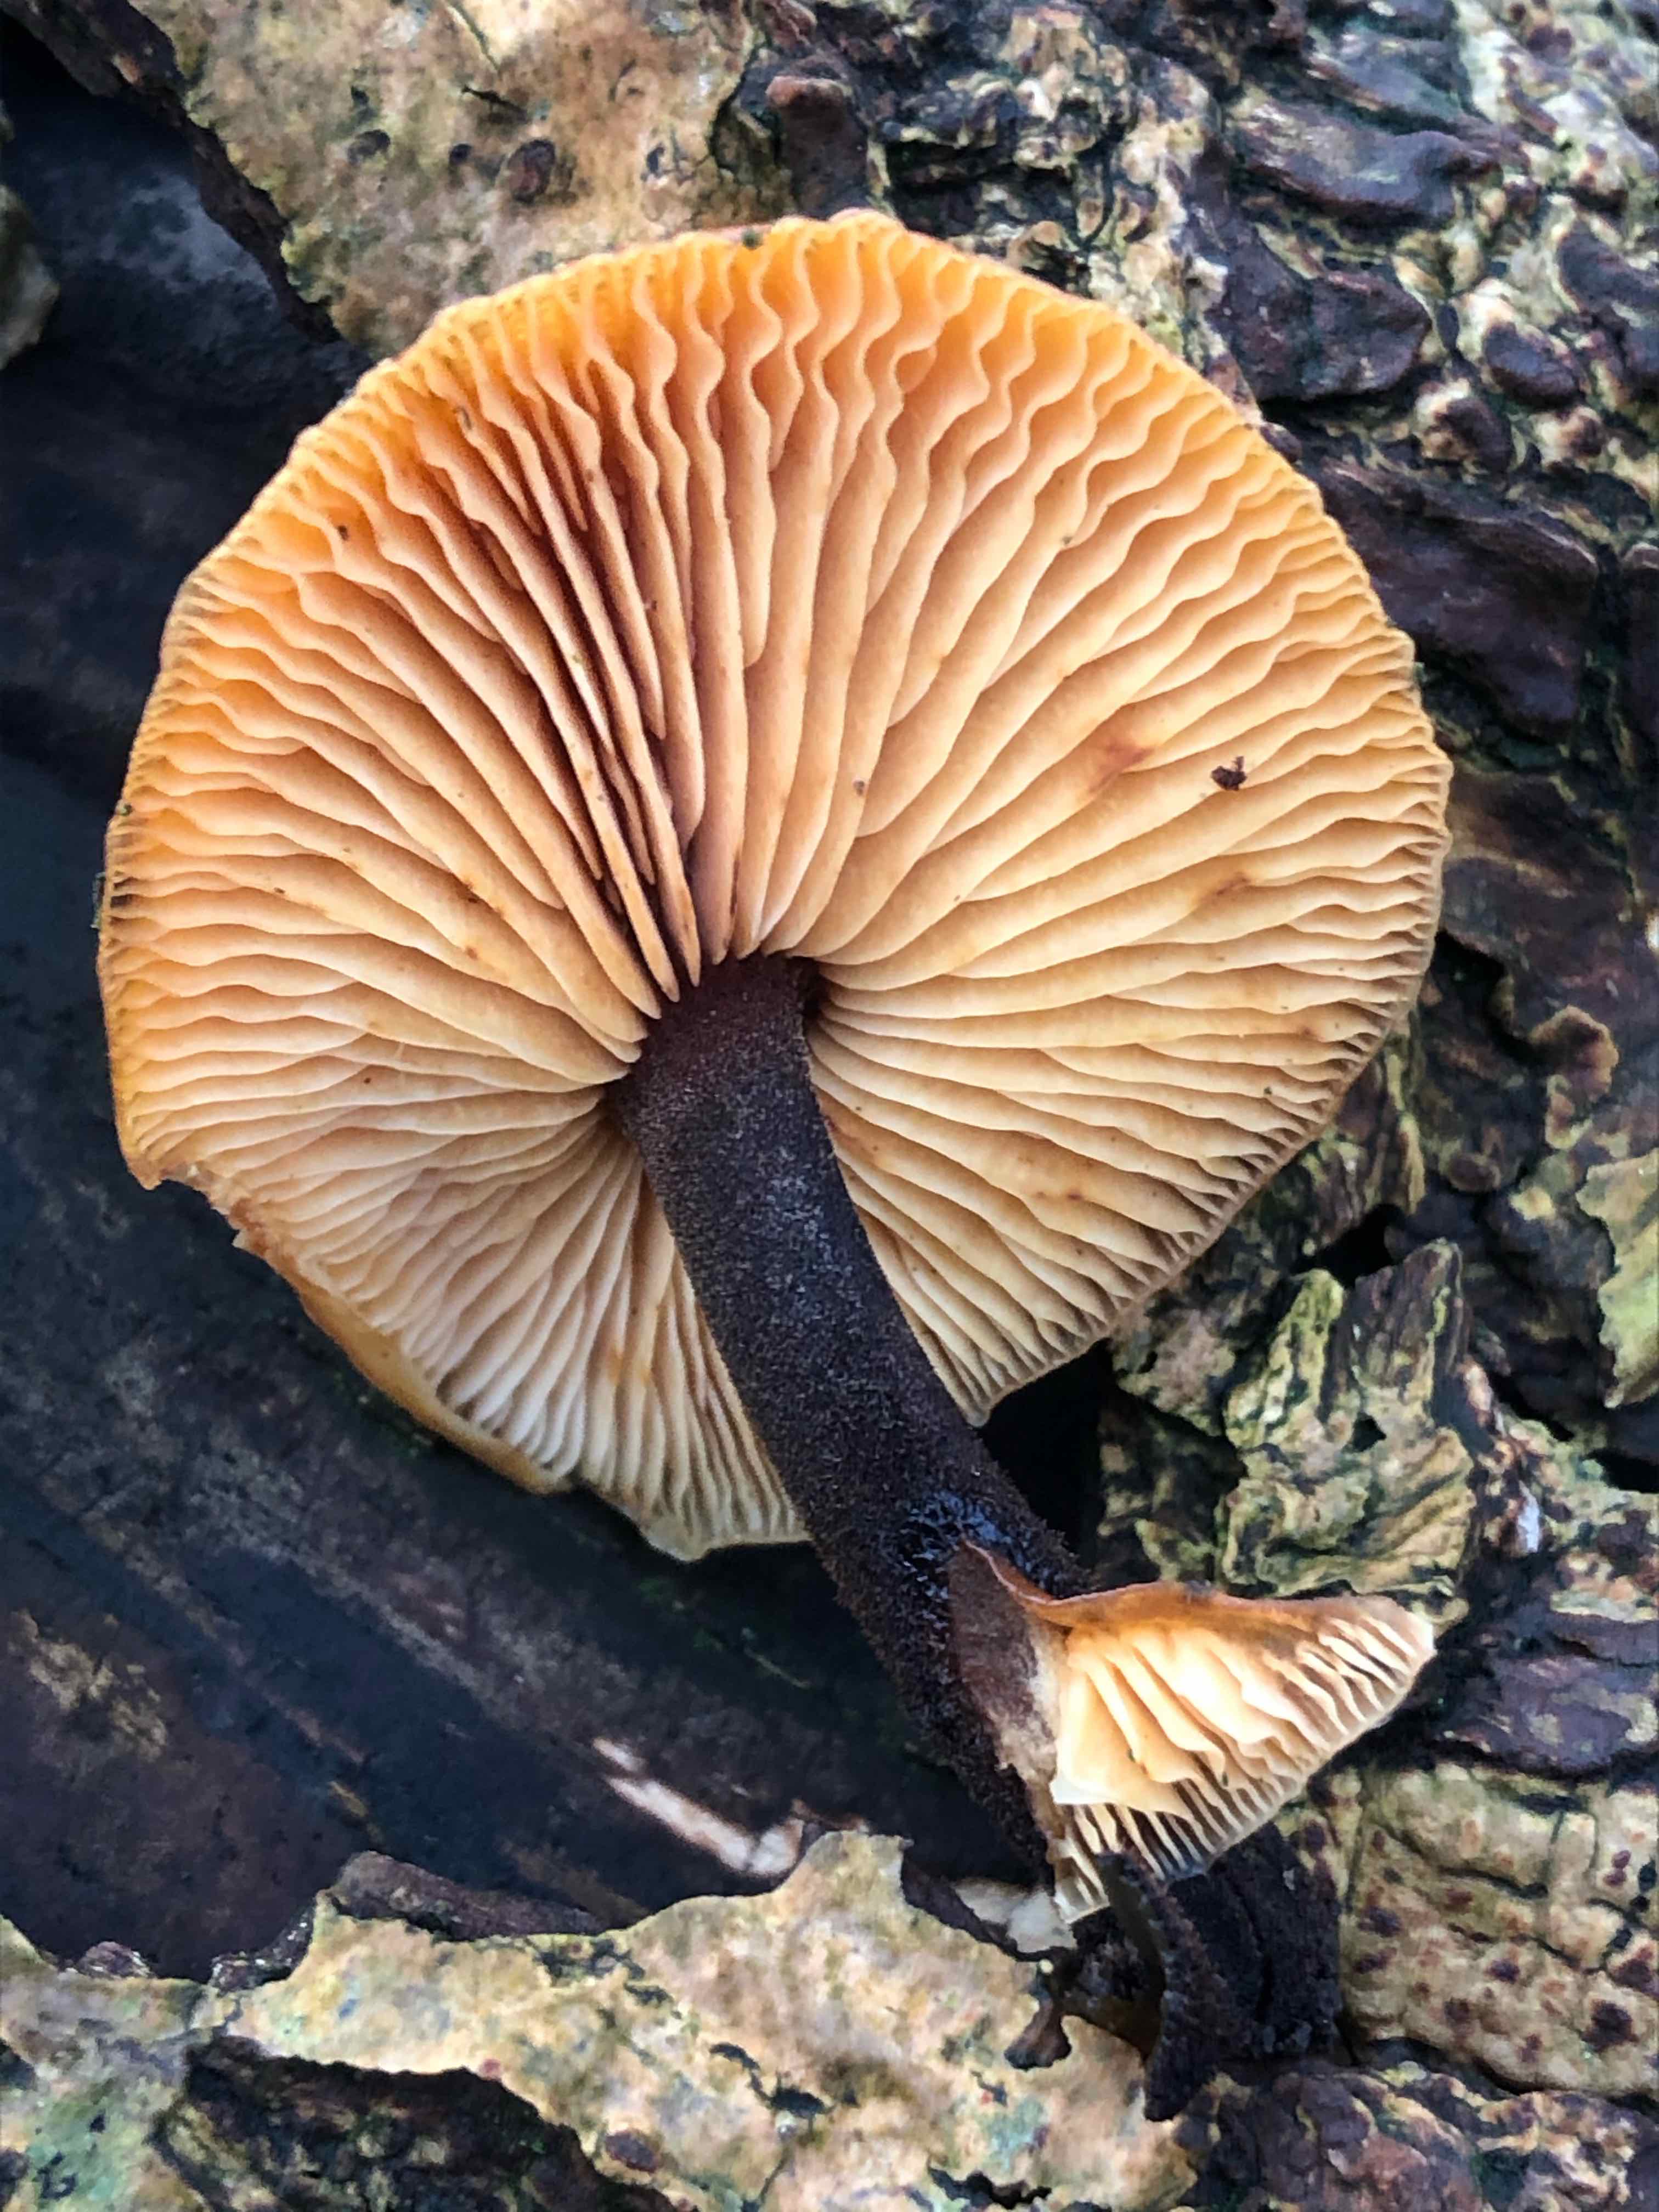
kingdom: Fungi
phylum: Basidiomycota
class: Agaricomycetes
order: Agaricales
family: Physalacriaceae
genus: Flammulina
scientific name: Flammulina velutipes
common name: gul fløjlsfod
